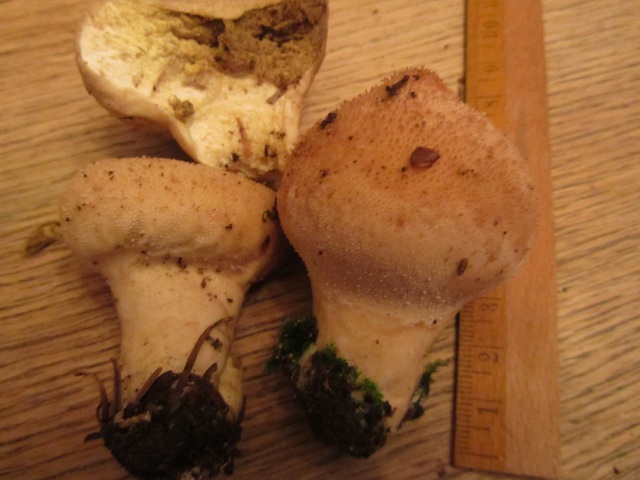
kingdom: Fungi
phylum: Basidiomycota
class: Agaricomycetes
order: Agaricales
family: Lycoperdaceae
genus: Lycoperdon
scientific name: Lycoperdon perlatum
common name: krystal-støvbold
